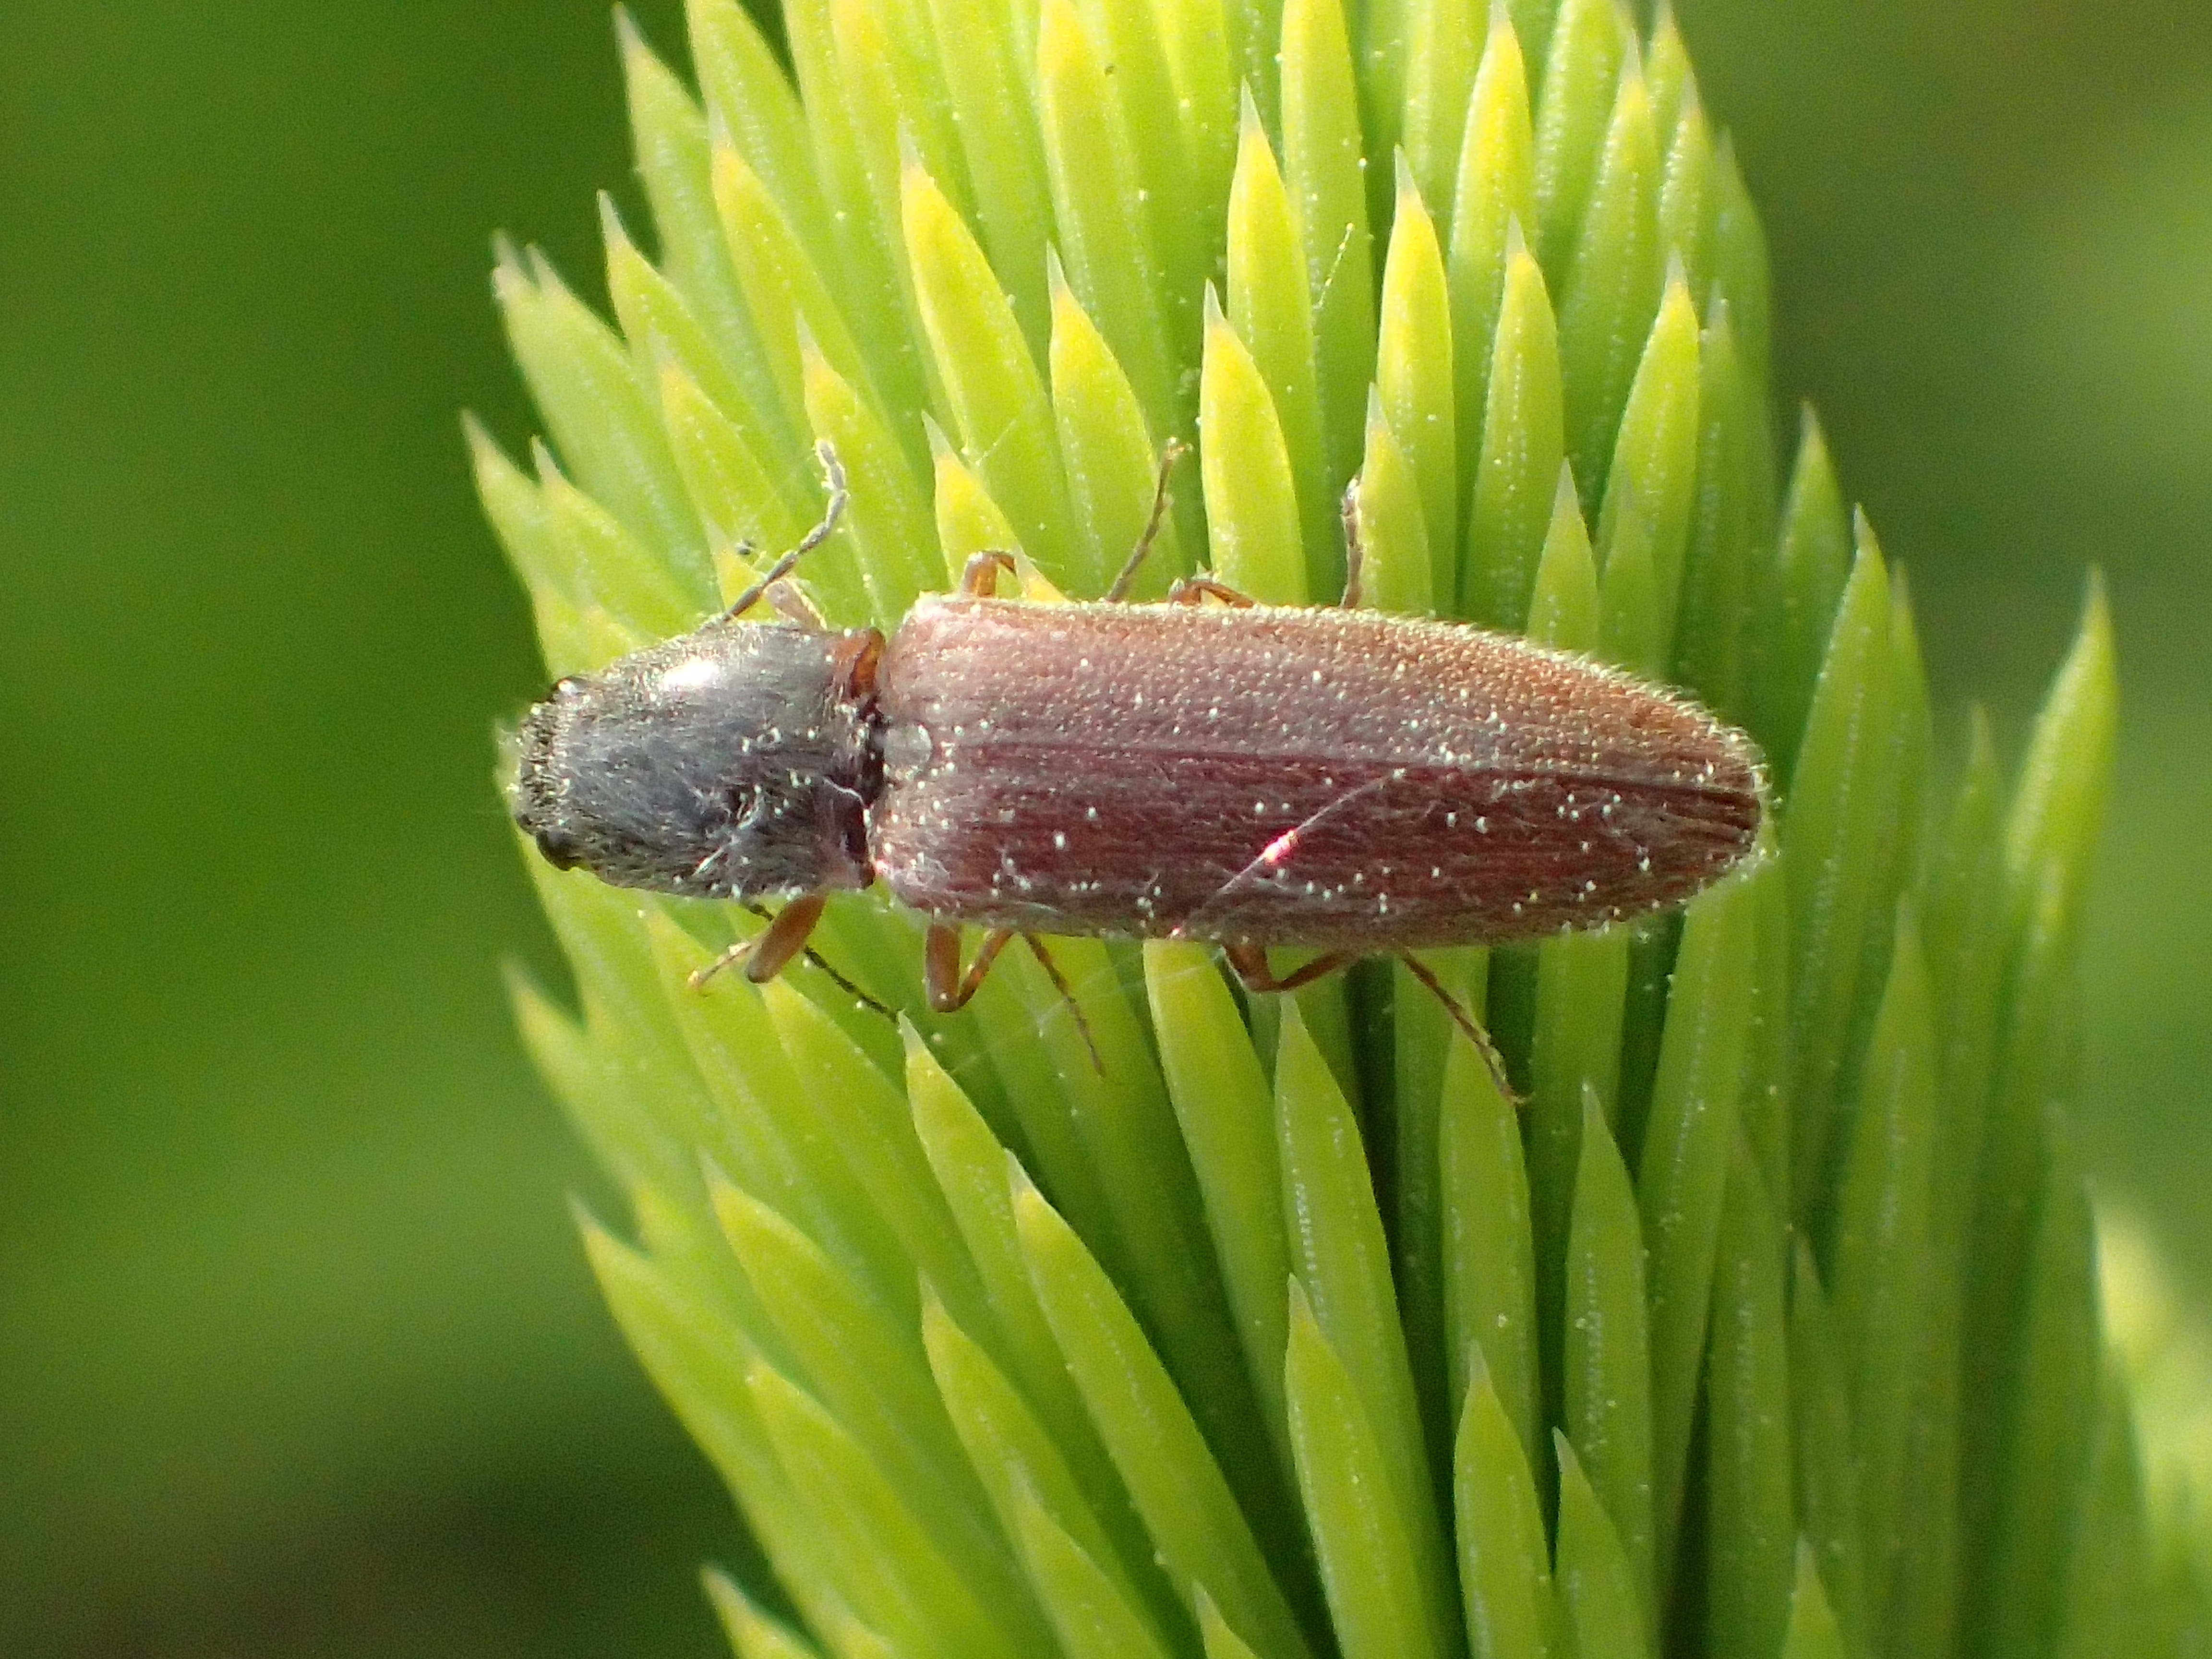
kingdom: Animalia
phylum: Arthropoda
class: Insecta
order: Coleoptera
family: Elateridae
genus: Athous
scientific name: Athous subfuscus
